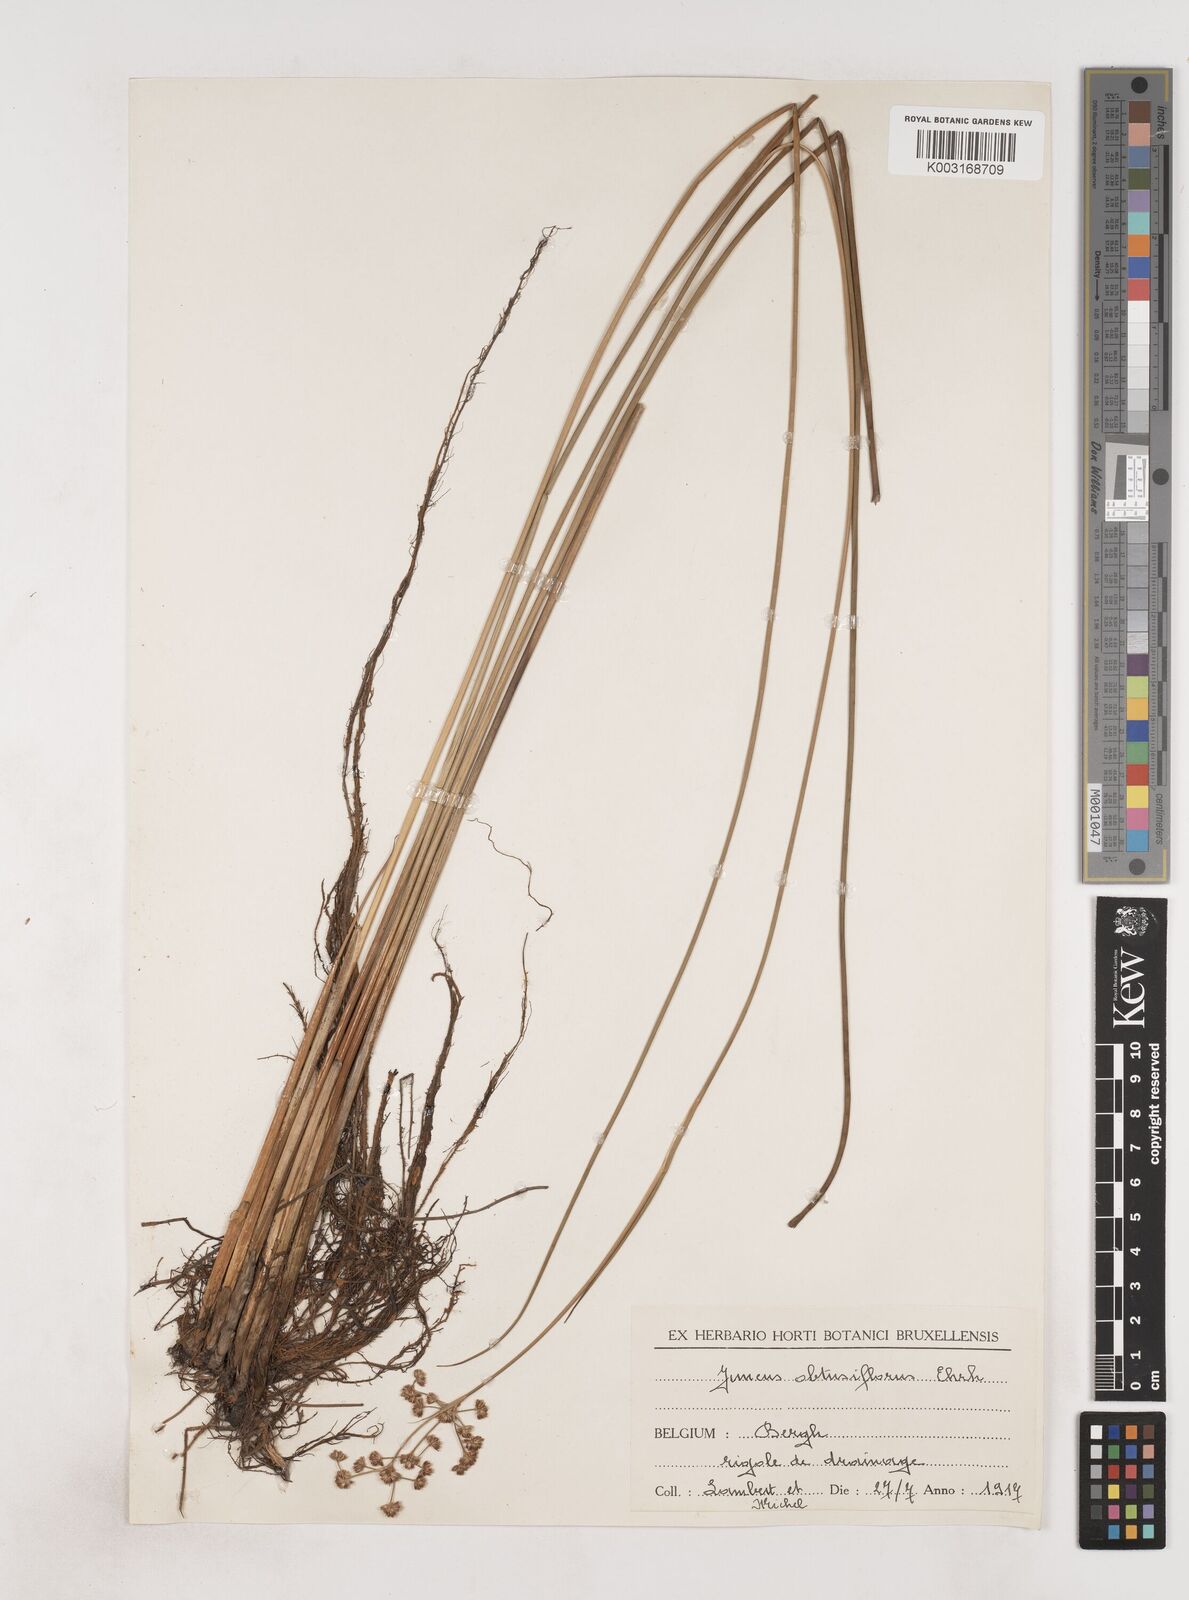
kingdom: Plantae
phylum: Tracheophyta
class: Liliopsida
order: Poales
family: Juncaceae
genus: Juncus
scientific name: Juncus subnodulosus
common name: Blunt-flowered rush
